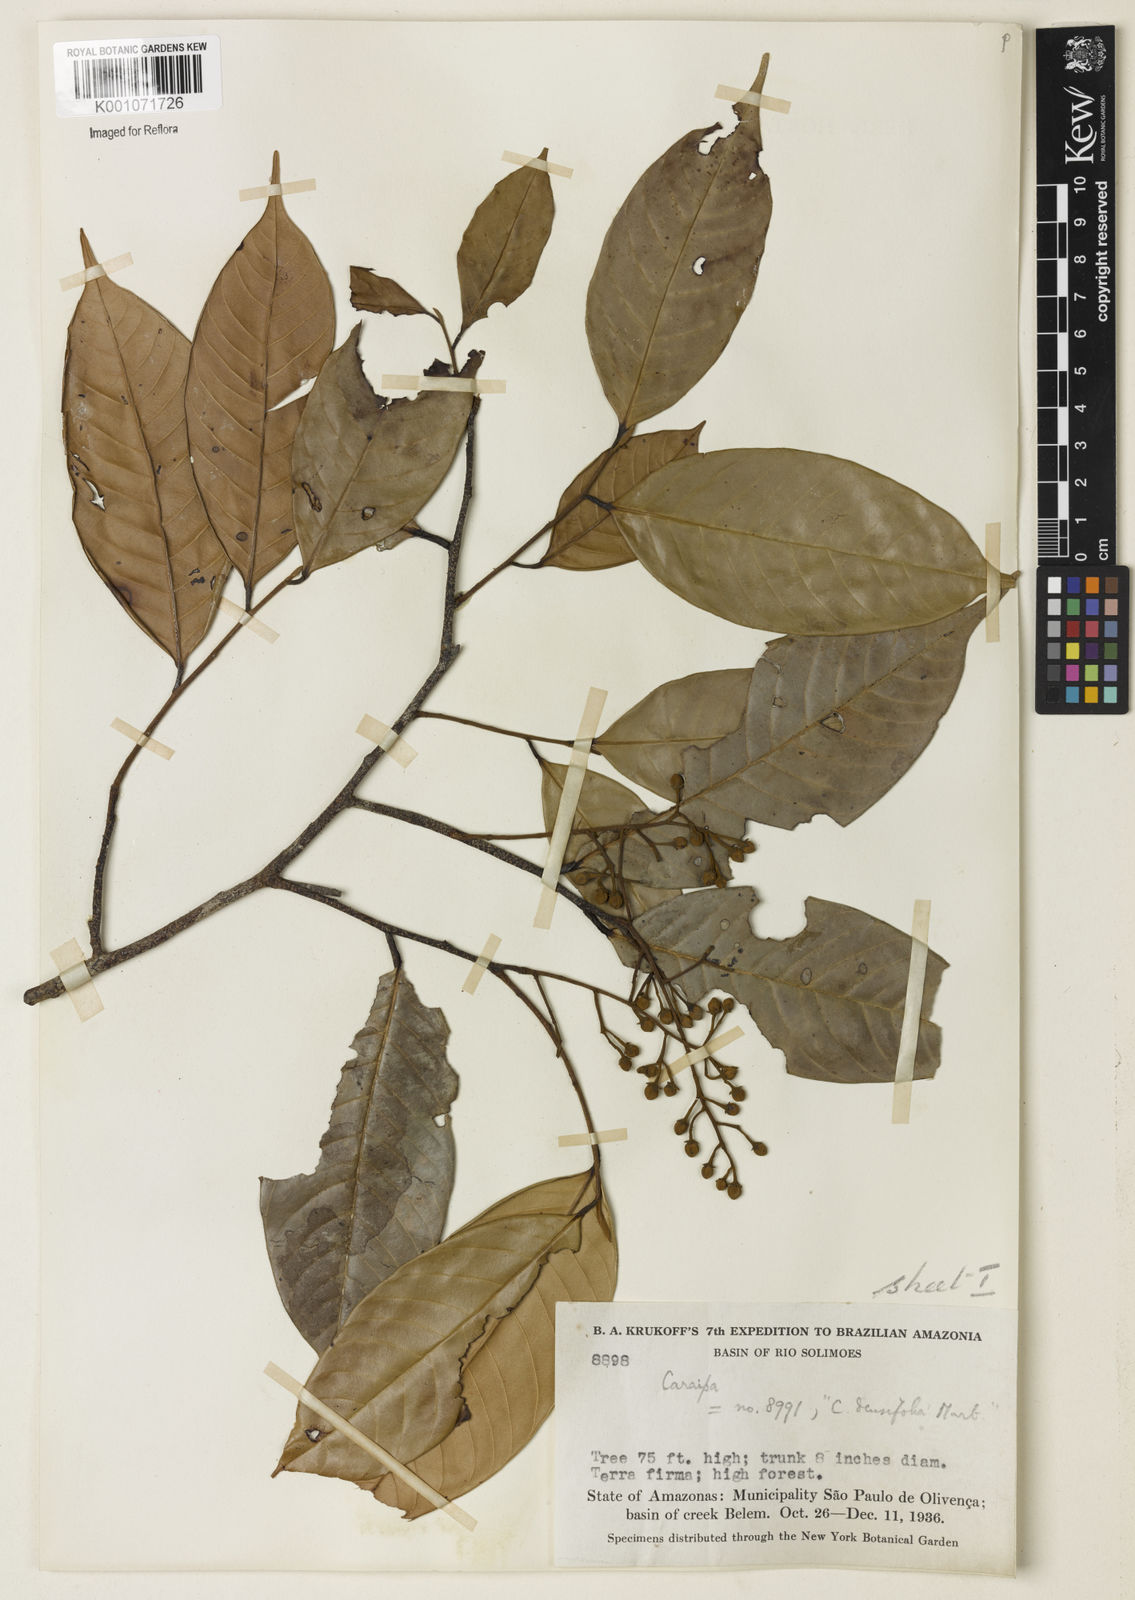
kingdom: Plantae
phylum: Tracheophyta
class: Magnoliopsida
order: Malpighiales
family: Calophyllaceae
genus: Caraipa
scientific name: Caraipa densifolia
